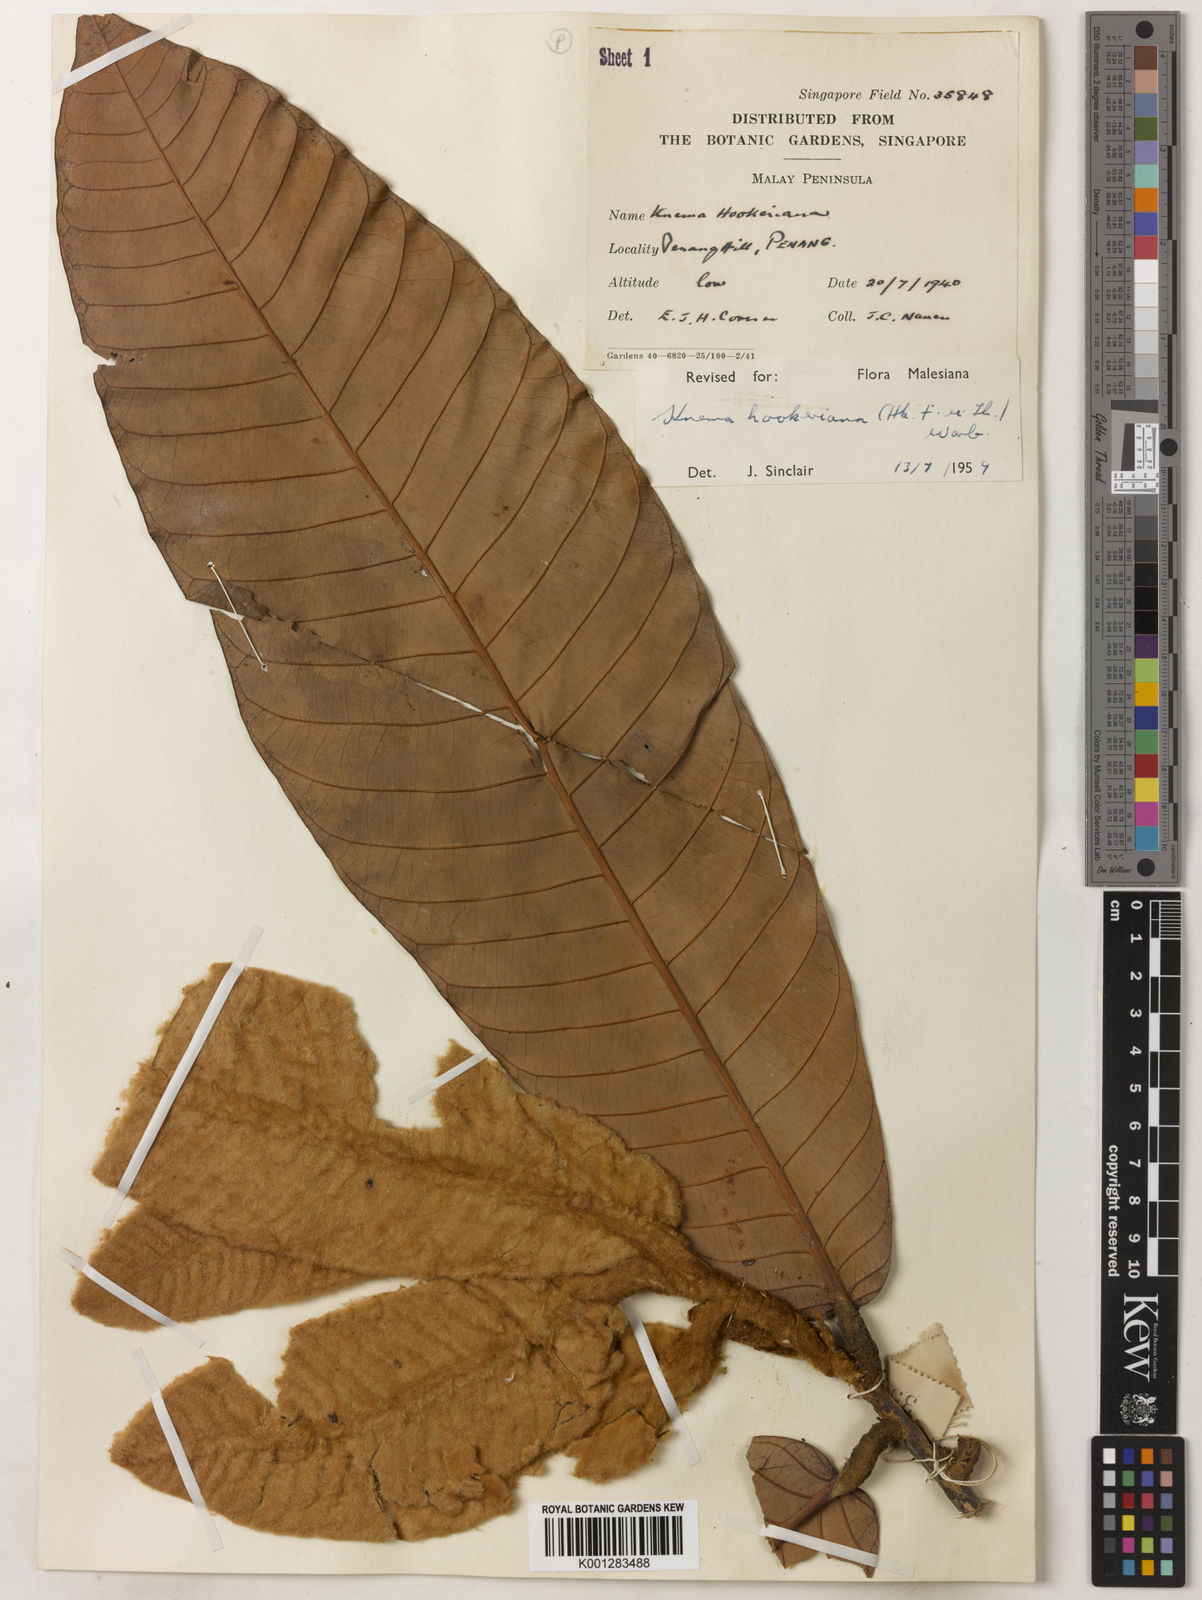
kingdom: Plantae
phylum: Tracheophyta
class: Magnoliopsida
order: Magnoliales
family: Myristicaceae
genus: Knema
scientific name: Knema hookeriana
